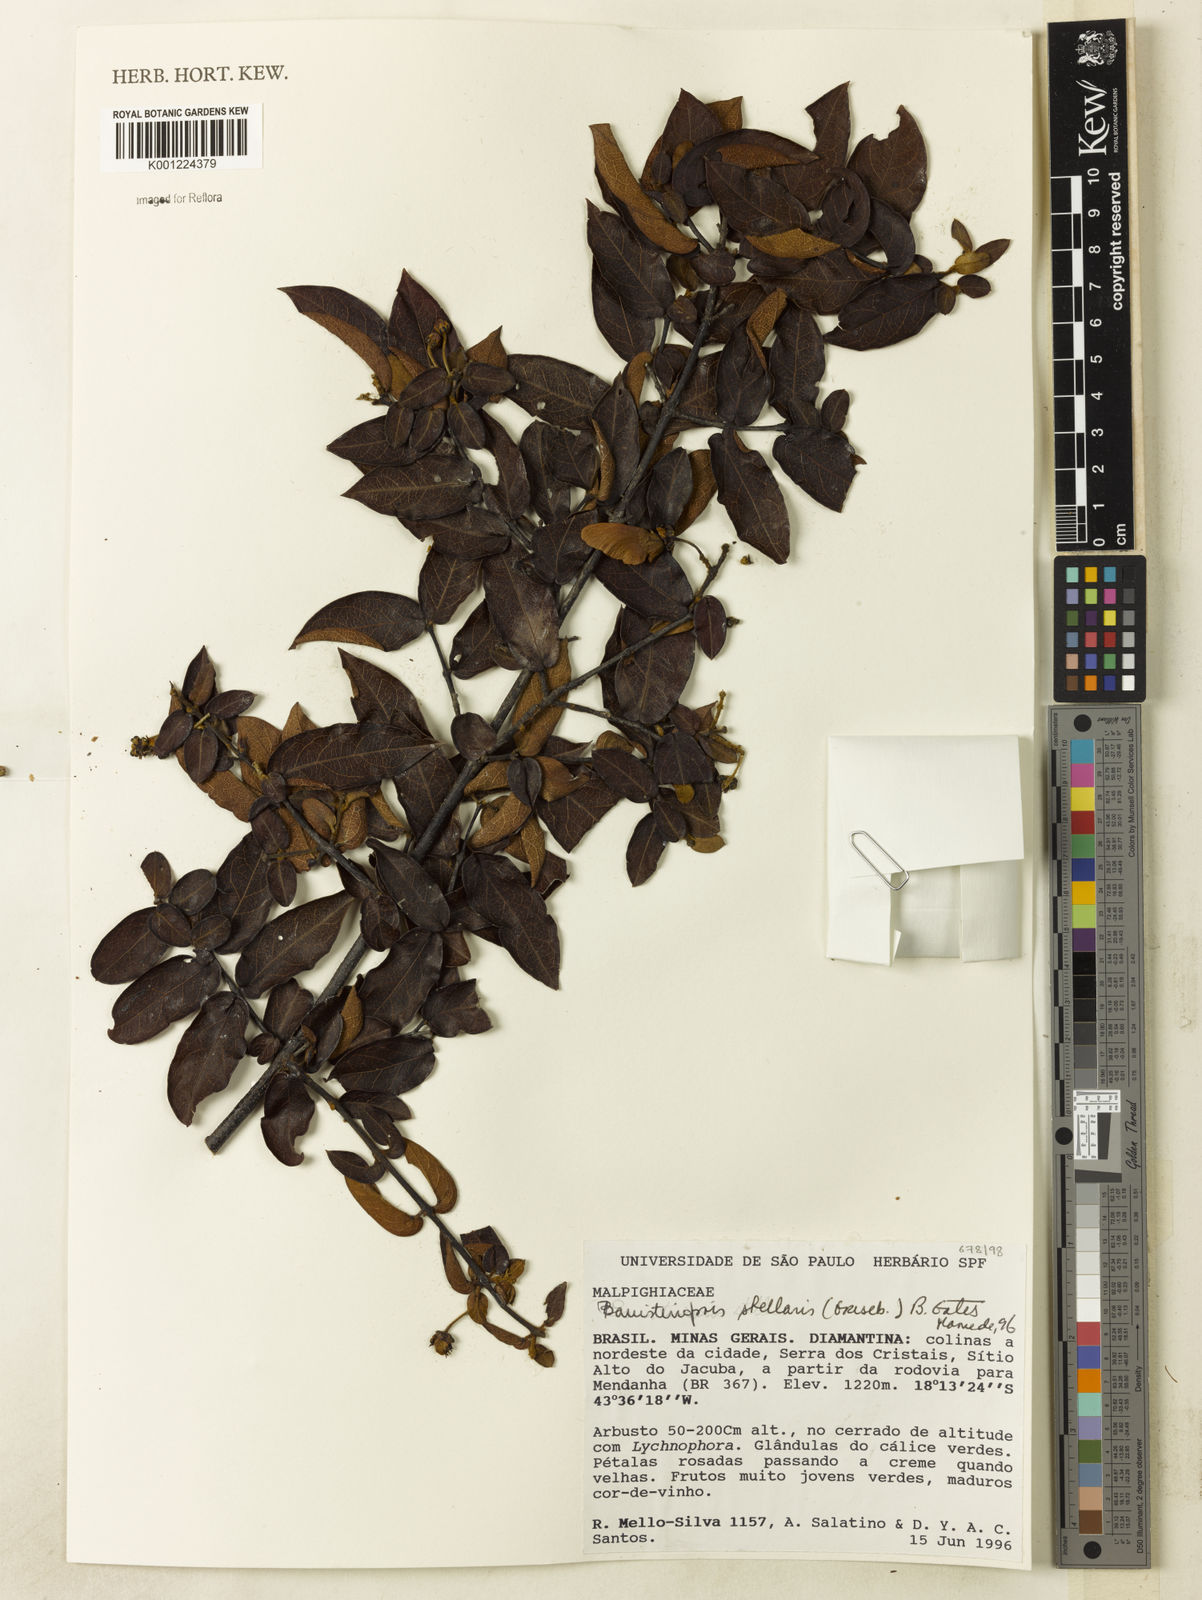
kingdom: Plantae
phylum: Tracheophyta
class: Magnoliopsida
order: Malpighiales
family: Malpighiaceae
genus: Banisteriopsis
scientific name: Banisteriopsis stellaris
